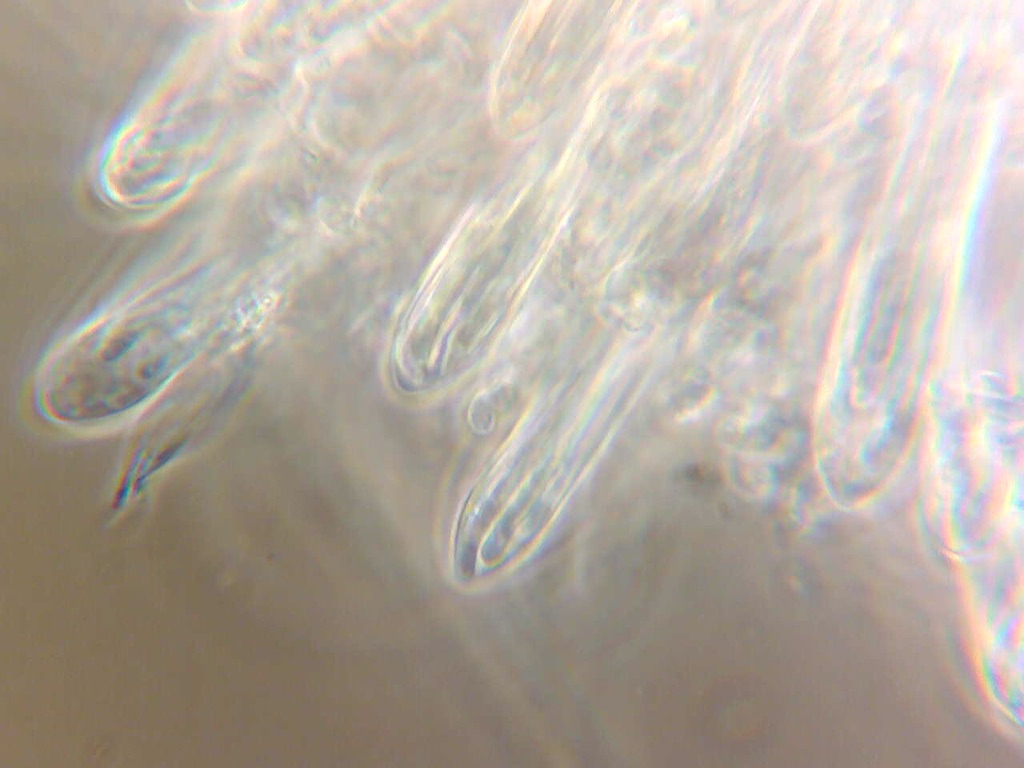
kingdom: Fungi
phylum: Ascomycota
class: Leotiomycetes
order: Rhytismatales
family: Rhytismataceae
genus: Lophodermium
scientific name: Lophodermium paeoniae
